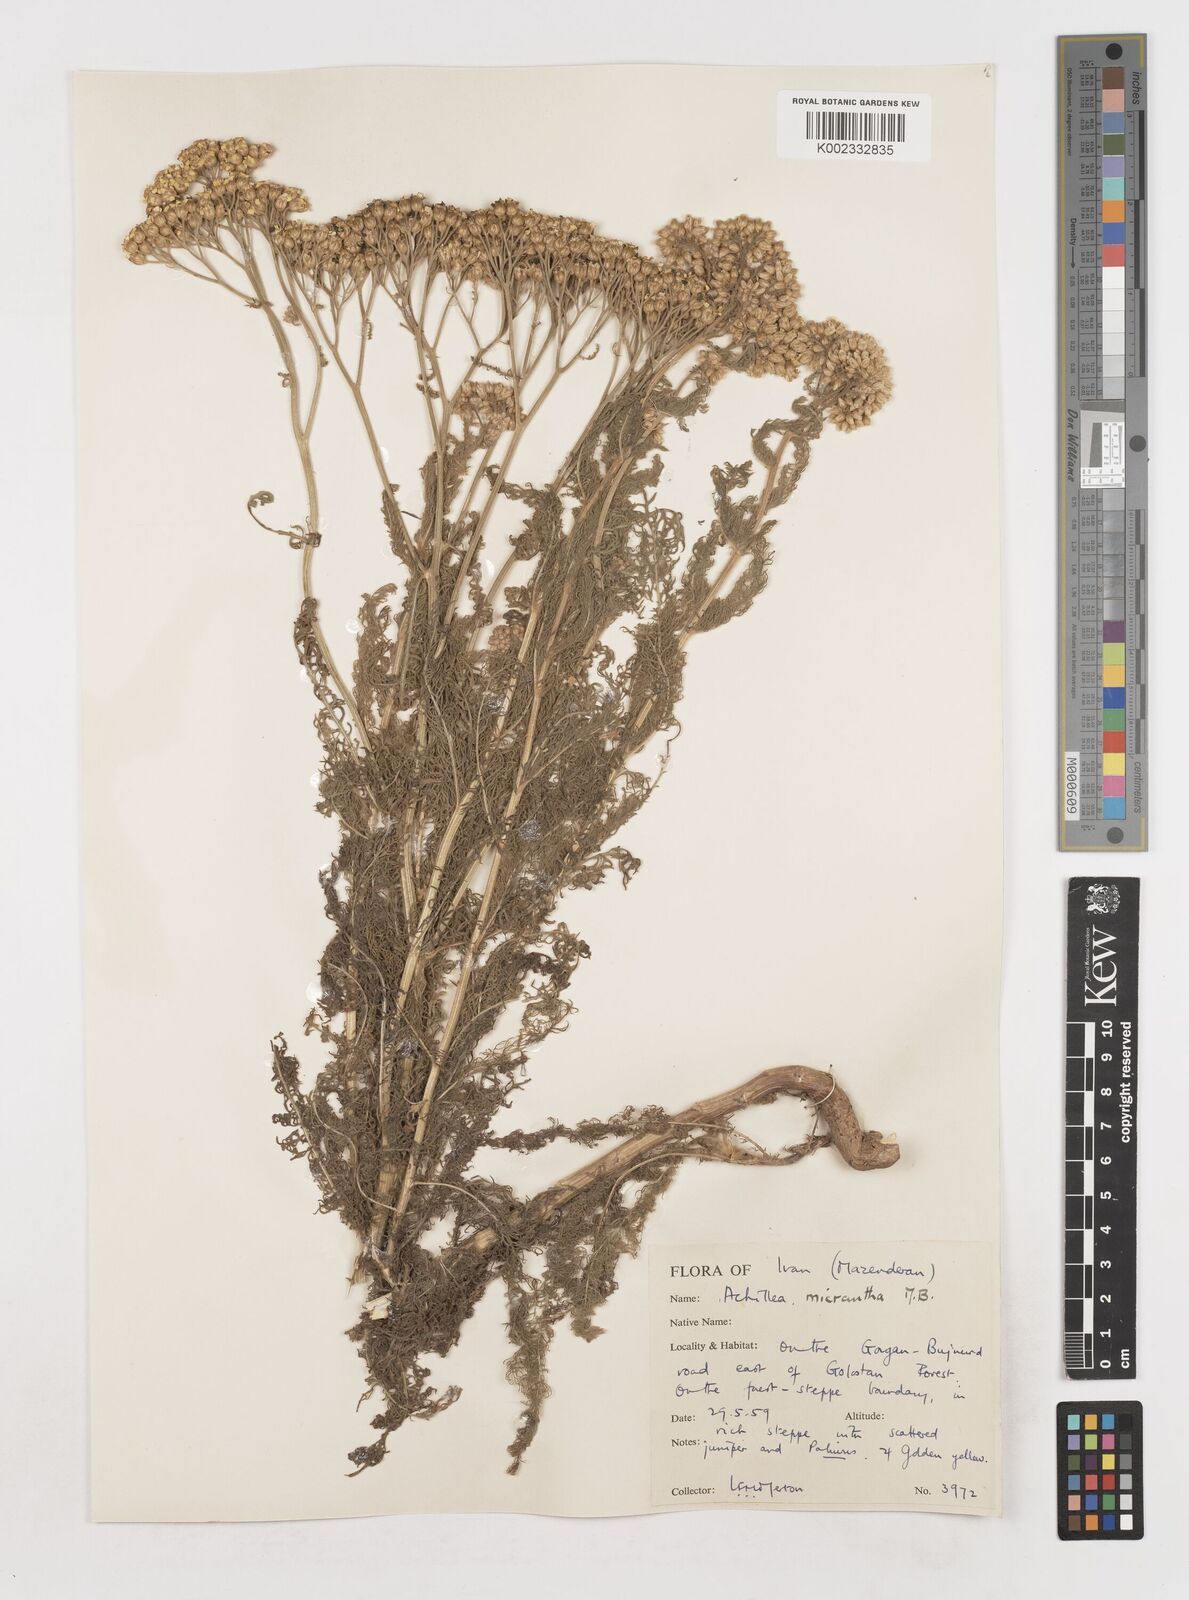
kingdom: Plantae
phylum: Tracheophyta
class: Magnoliopsida
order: Asterales
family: Asteraceae
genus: Achillea
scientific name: Achillea arabica
